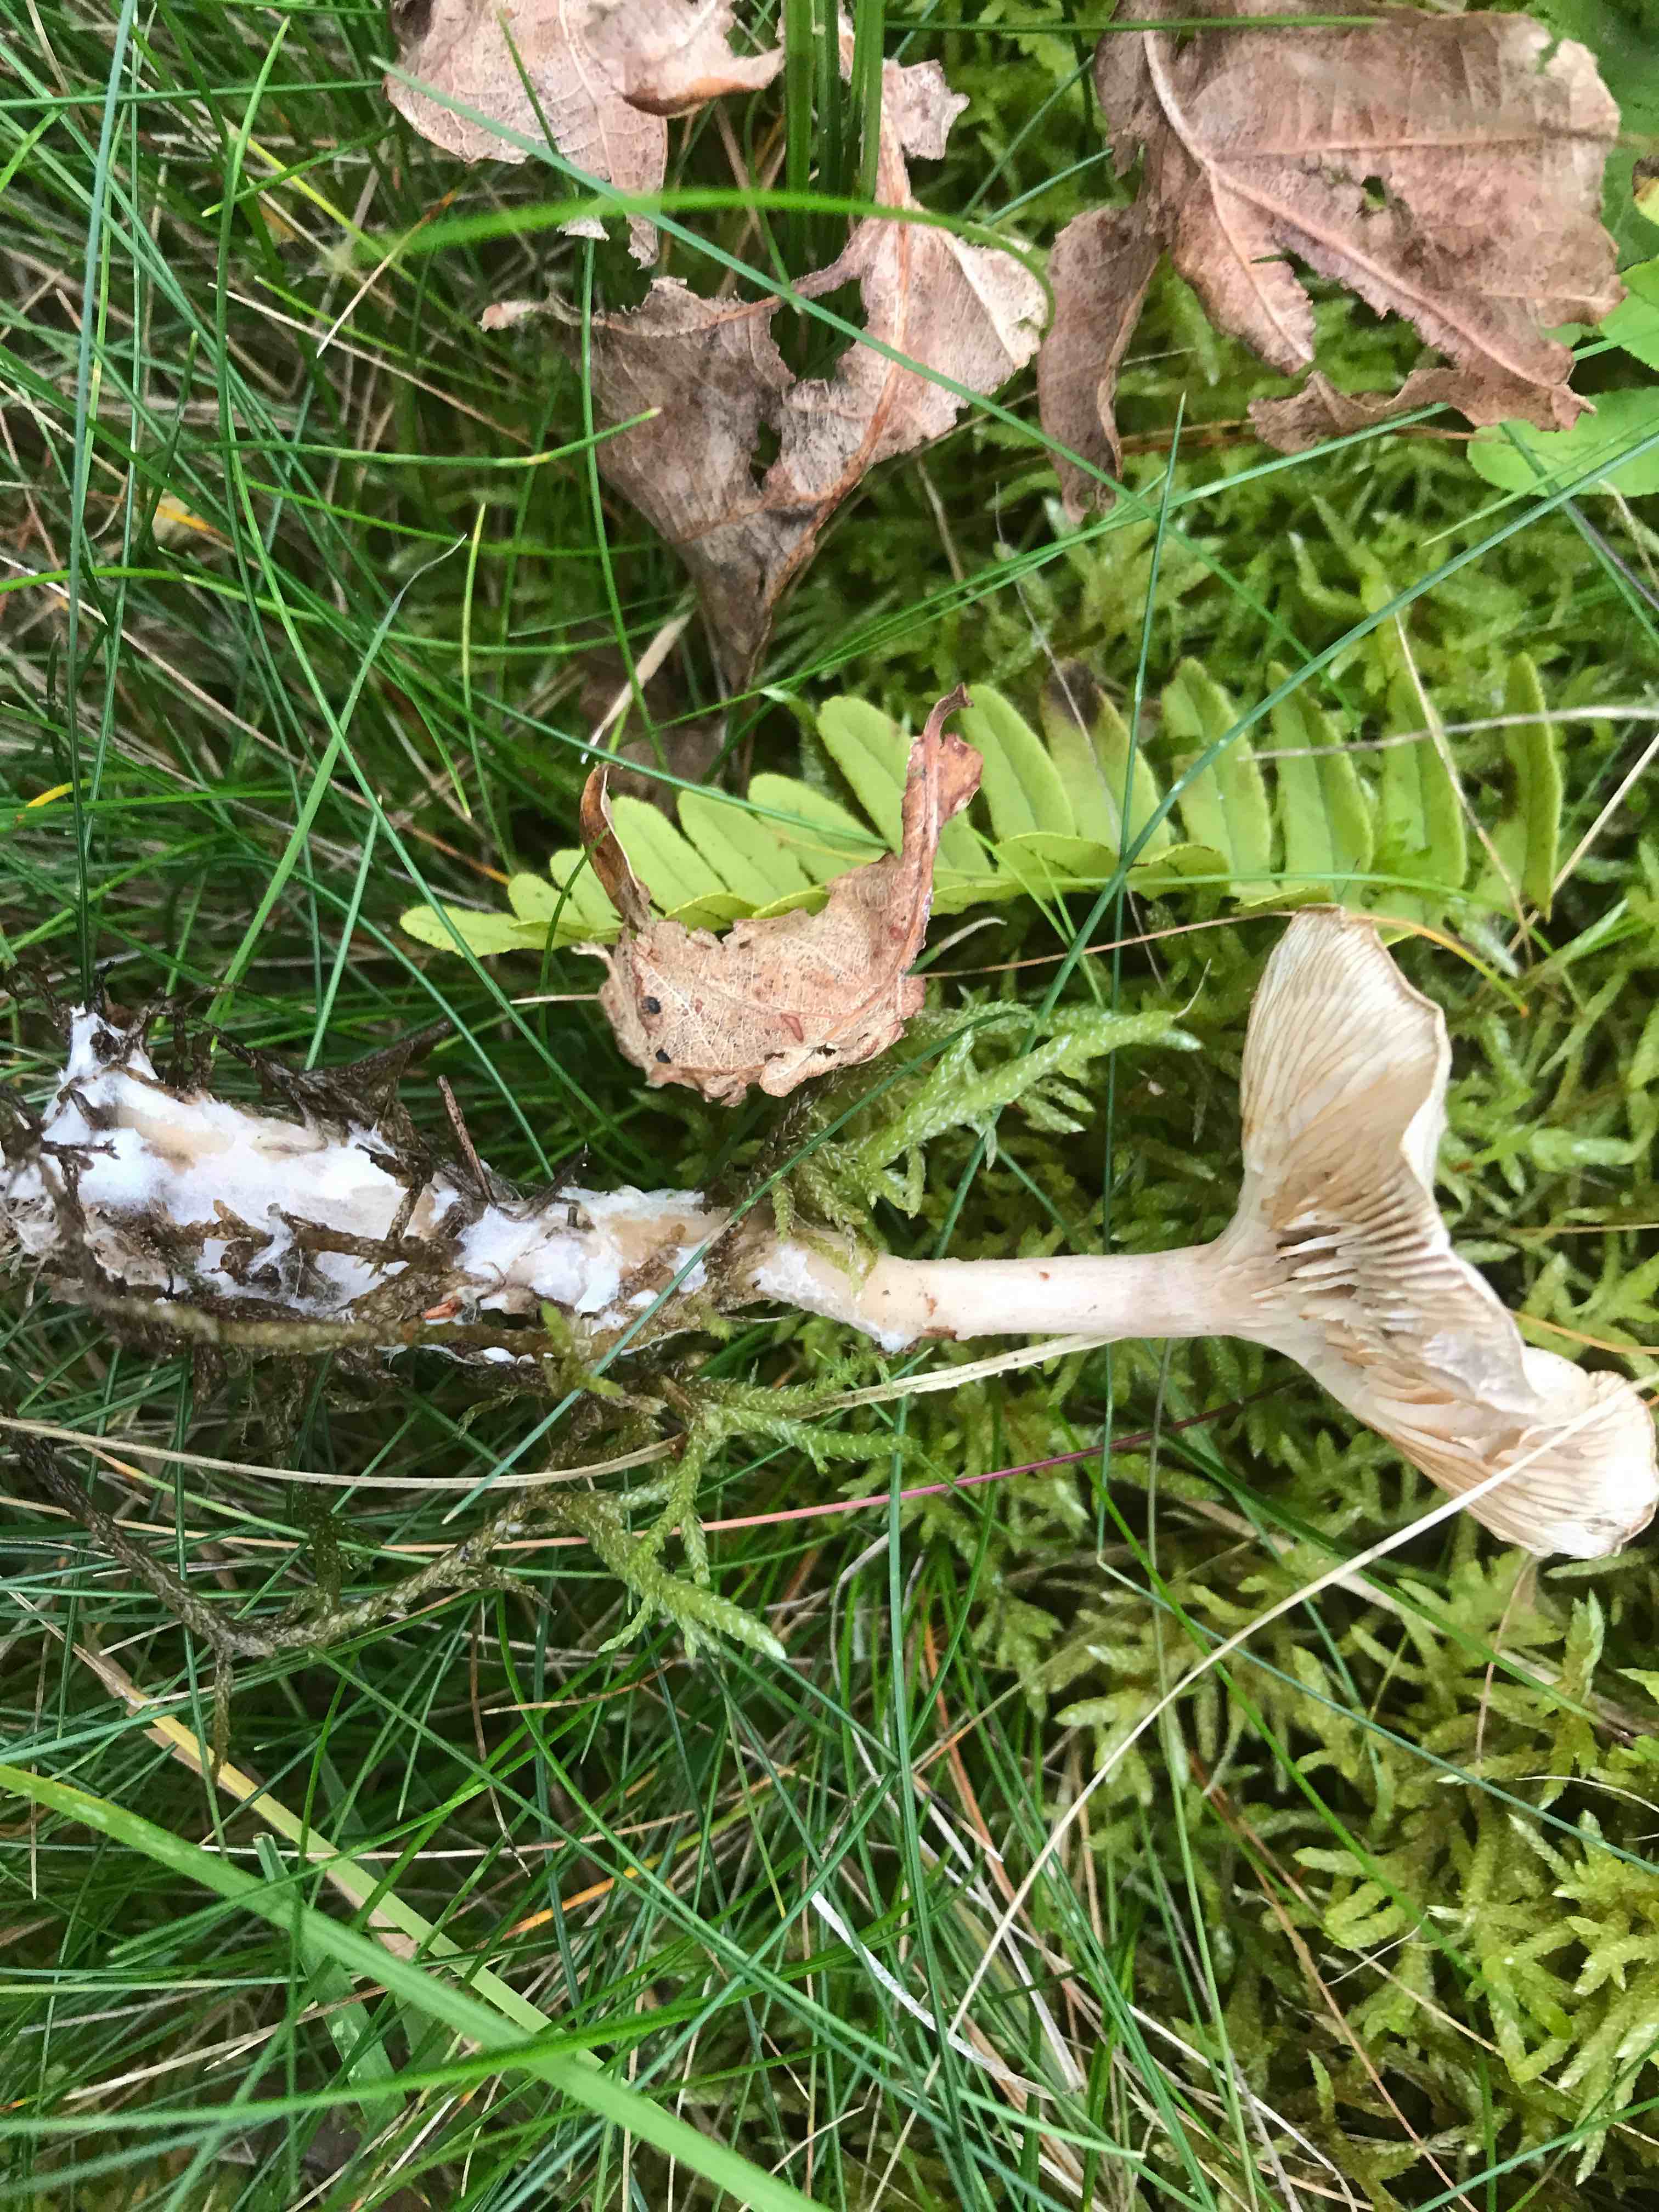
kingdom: Fungi
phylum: Basidiomycota
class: Agaricomycetes
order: Agaricales
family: Tricholomataceae
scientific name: Tricholomataceae
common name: ridderhatfamilien
